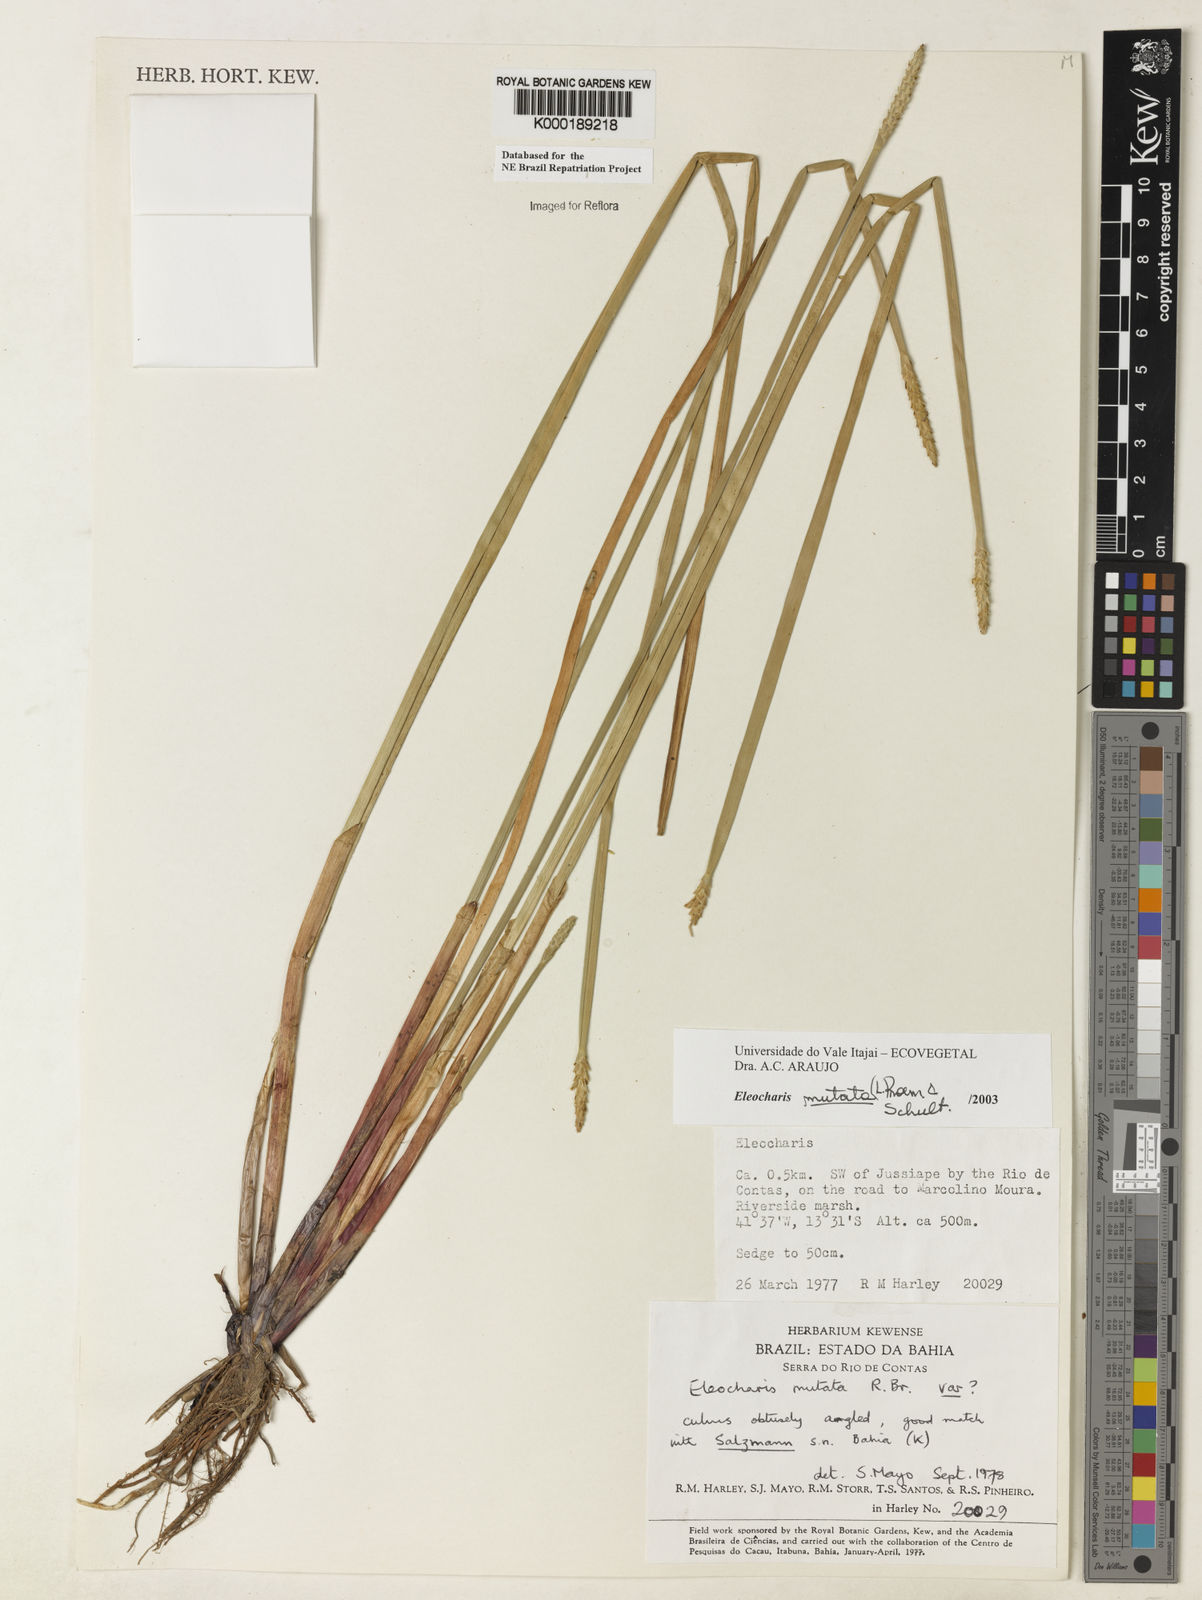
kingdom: Plantae
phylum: Tracheophyta
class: Liliopsida
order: Poales
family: Cyperaceae
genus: Eleocharis
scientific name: Eleocharis mutata
